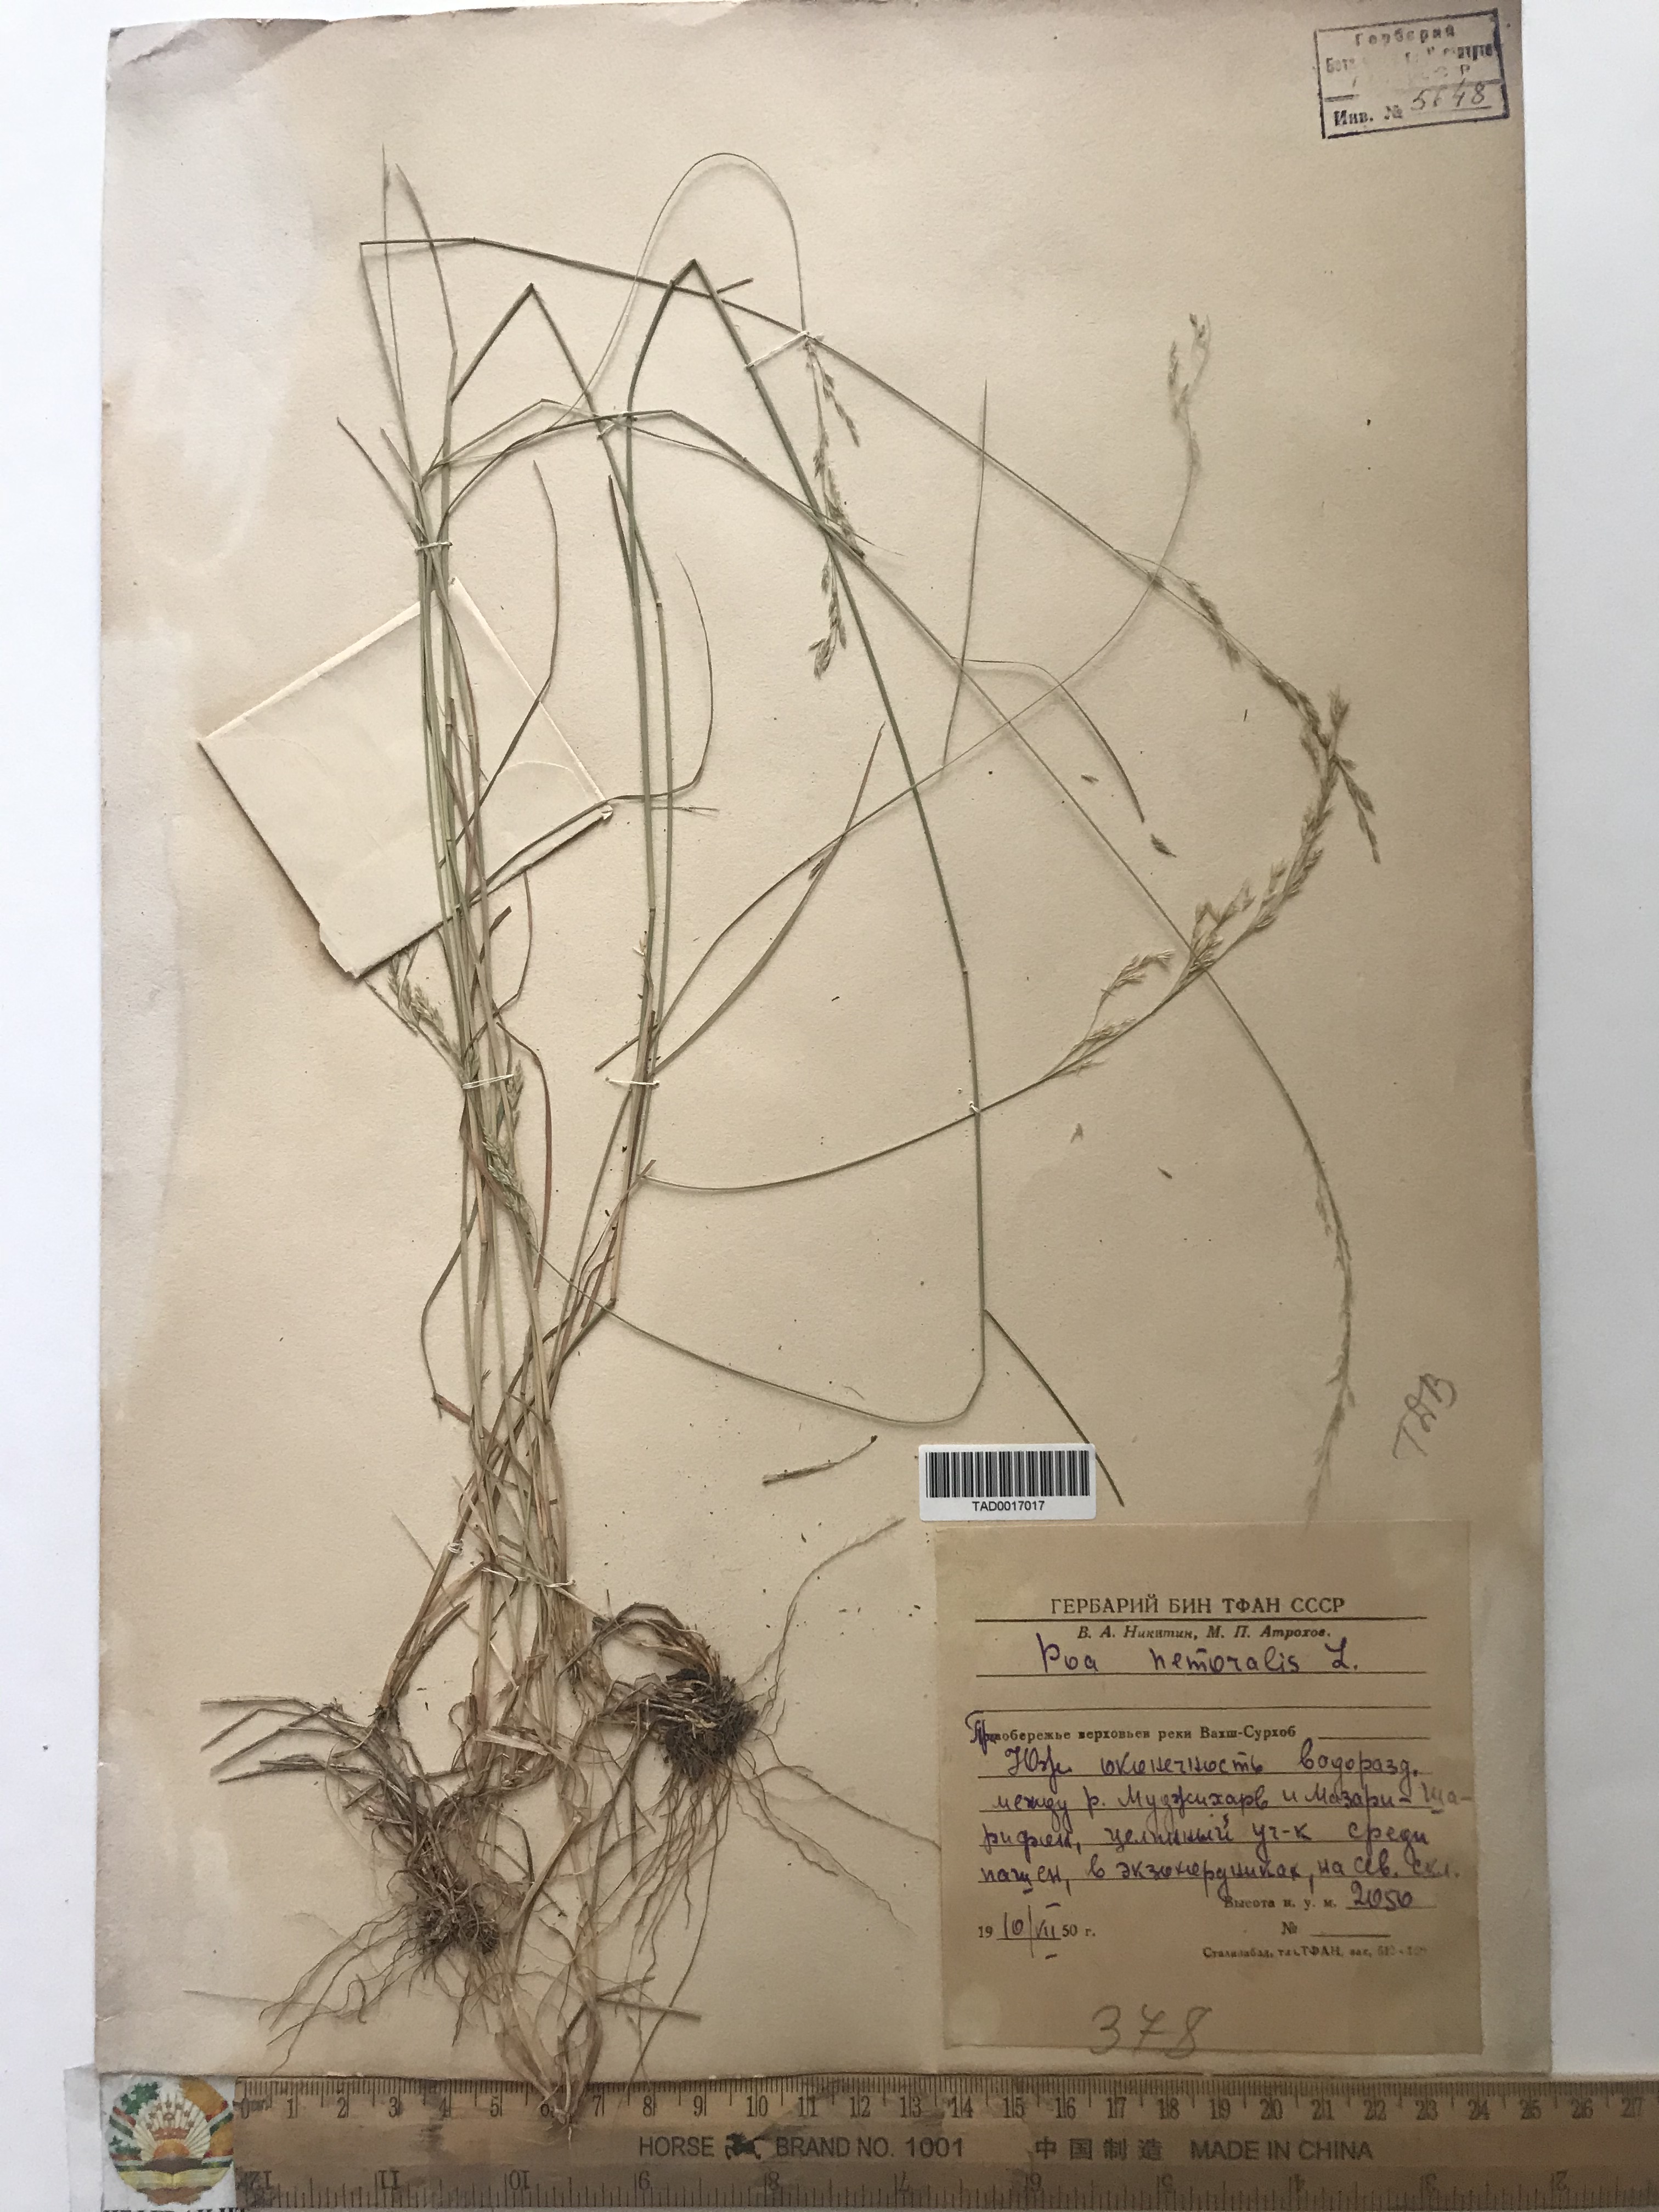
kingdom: Plantae
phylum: Tracheophyta
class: Liliopsida
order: Poales
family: Poaceae
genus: Poa
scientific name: Poa nemoralis
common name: Wood bluegrass
